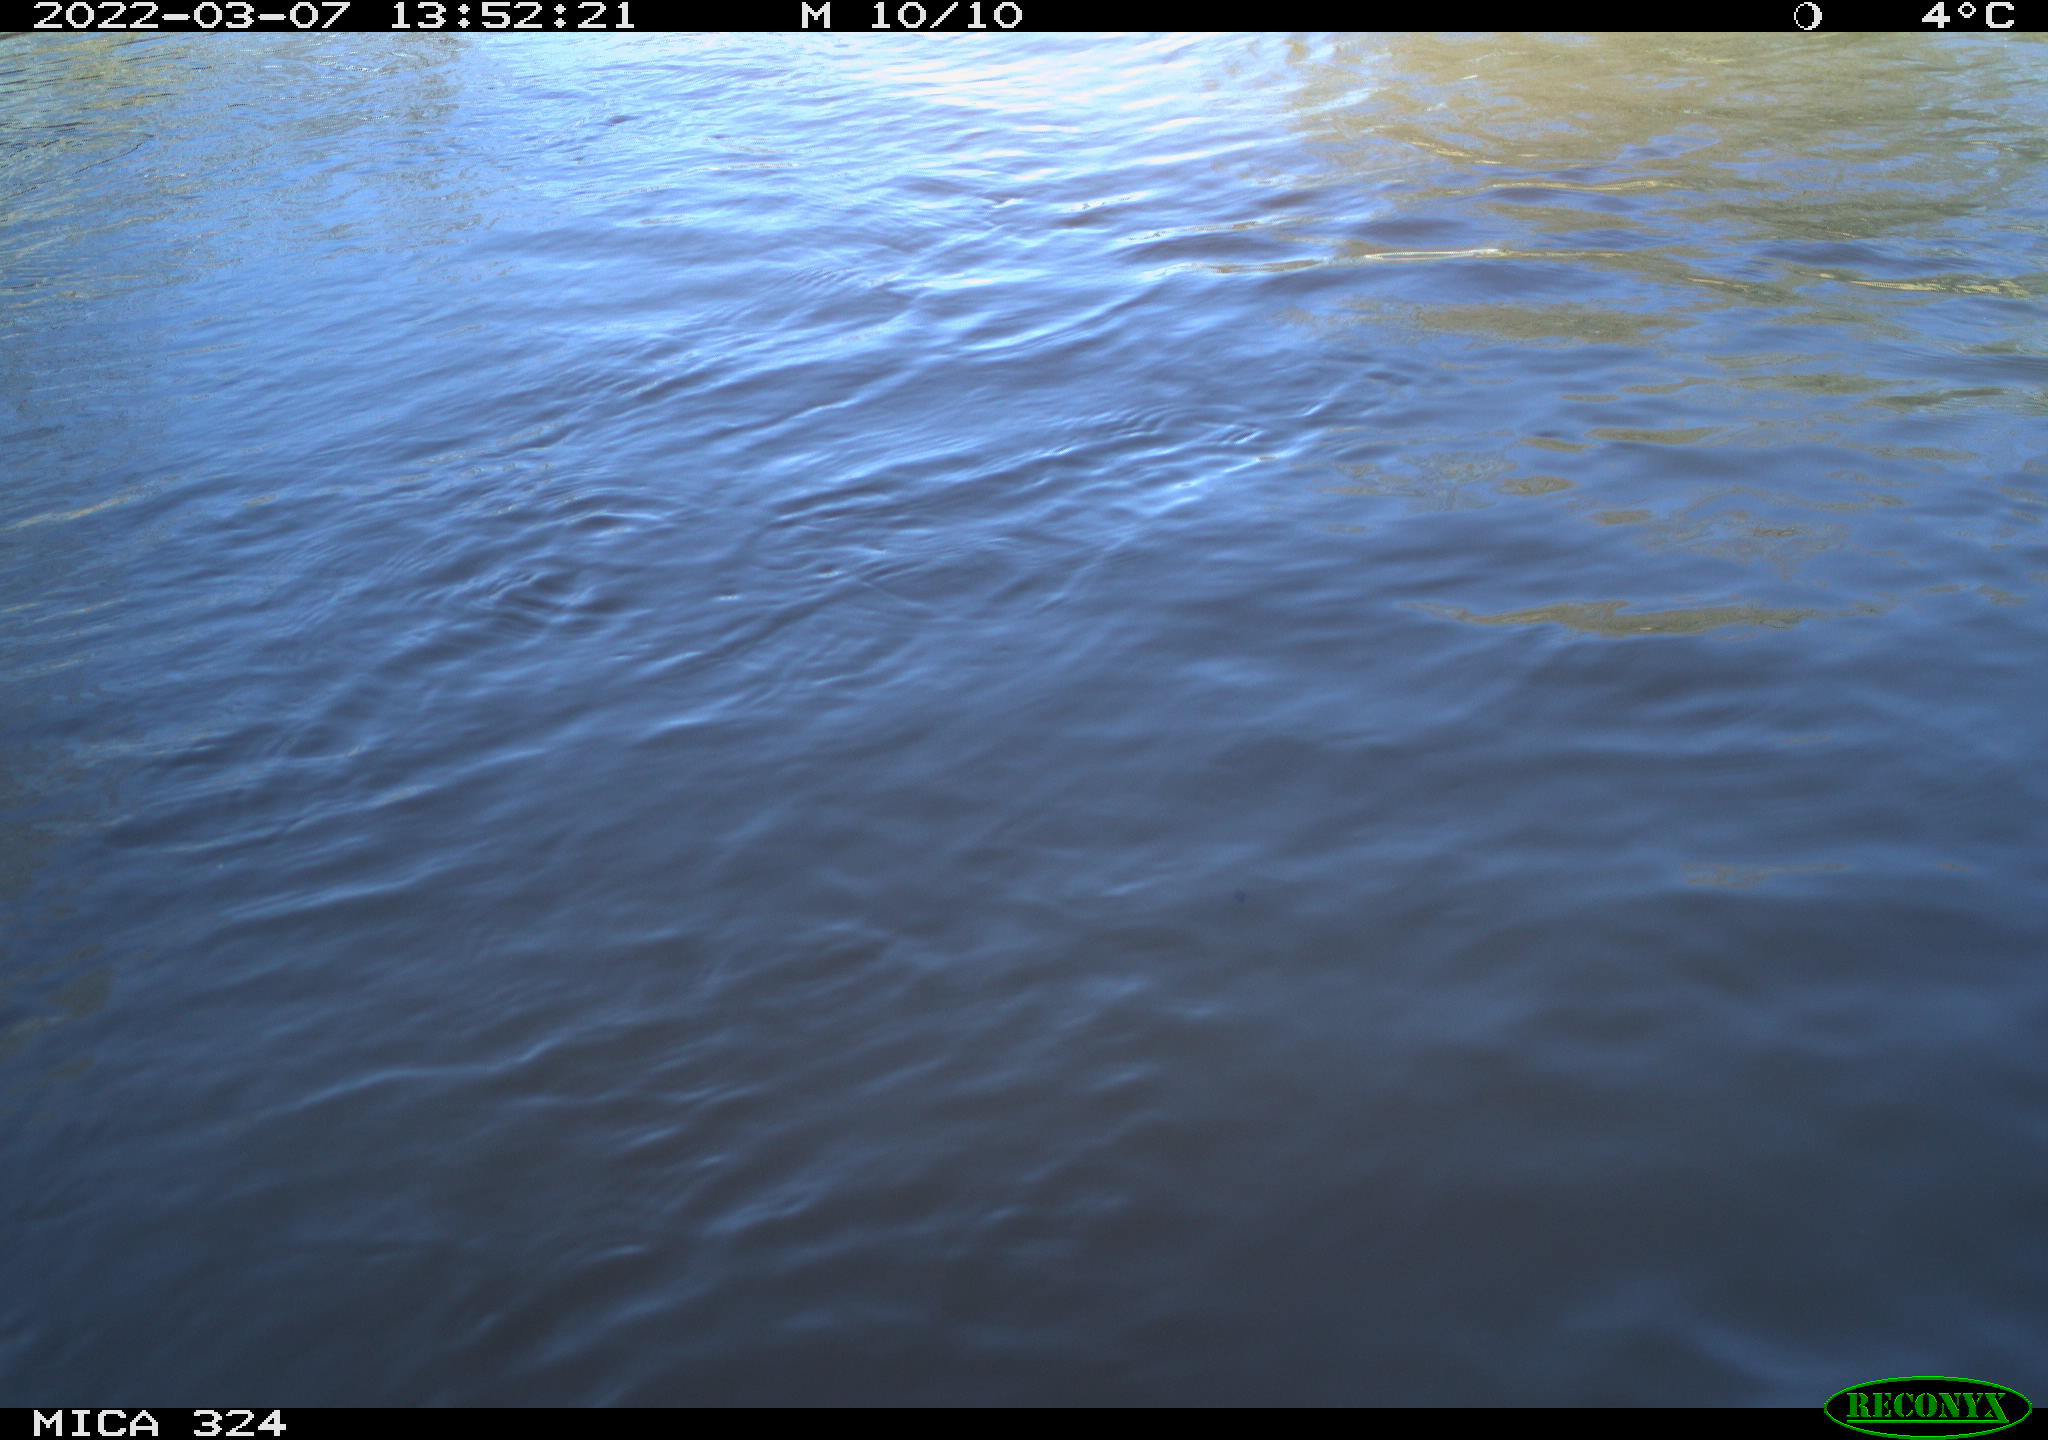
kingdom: Animalia
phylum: Chordata
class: Aves
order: Gruiformes
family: Rallidae
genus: Fulica
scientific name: Fulica atra
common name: Eurasian coot
